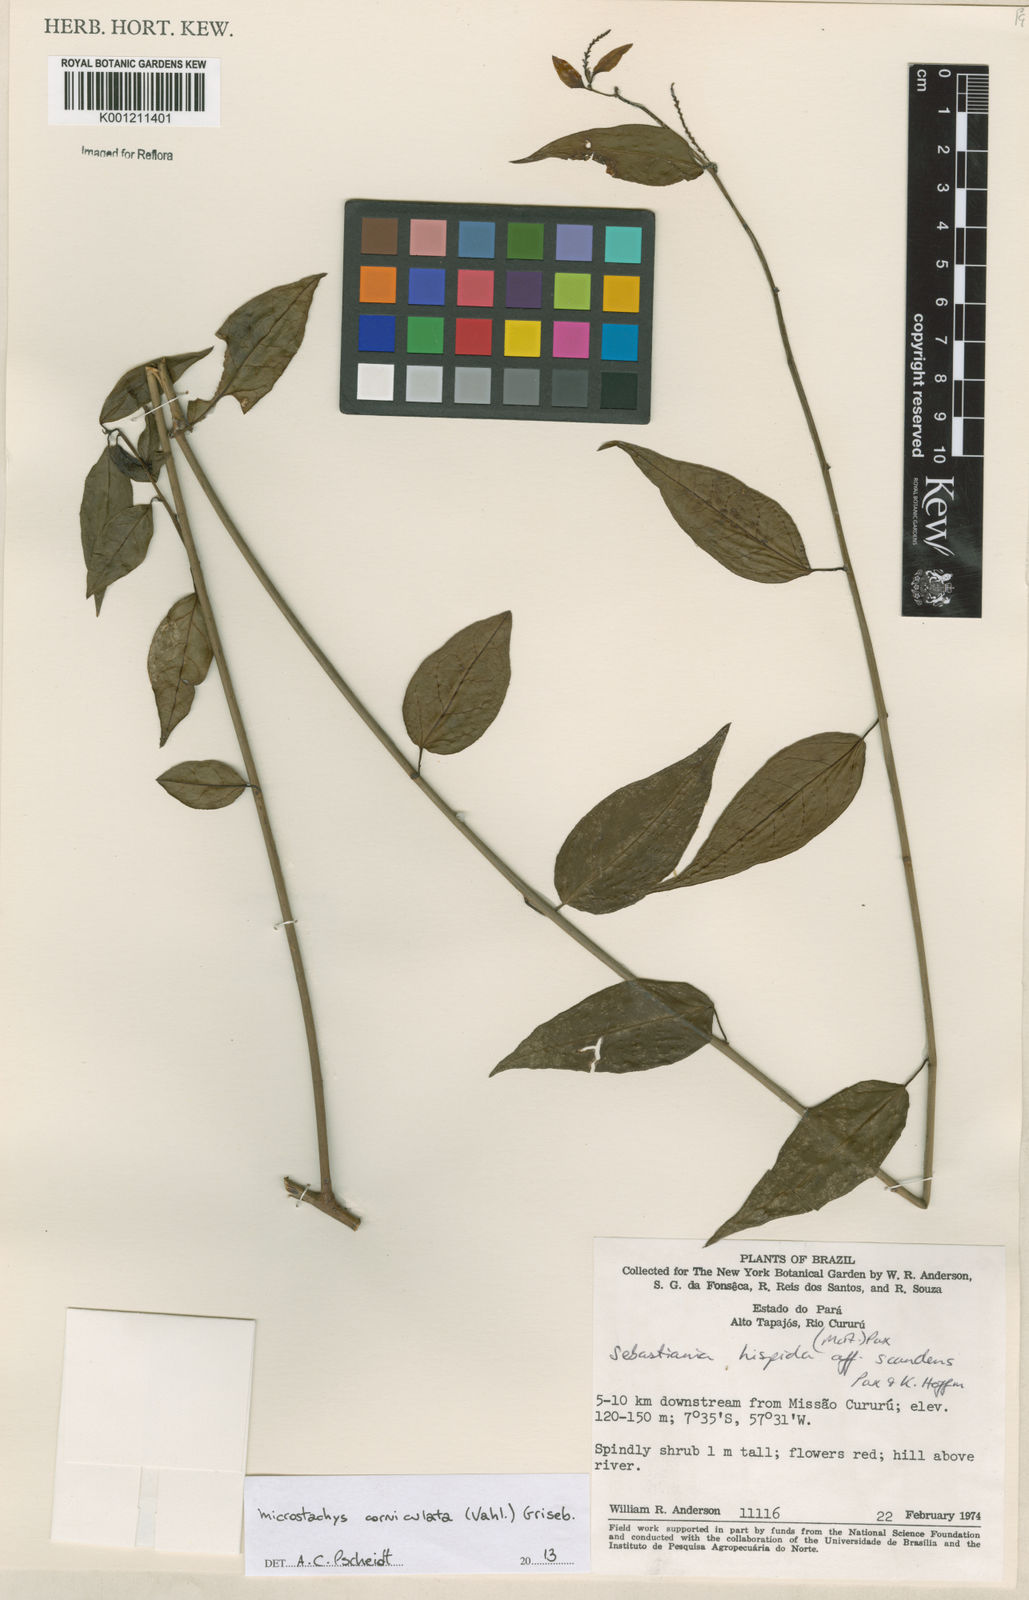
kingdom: Plantae
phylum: Tracheophyta
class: Magnoliopsida
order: Malpighiales
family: Euphorbiaceae
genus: Microstachys
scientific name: Microstachys corniculata
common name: Hato tejas
